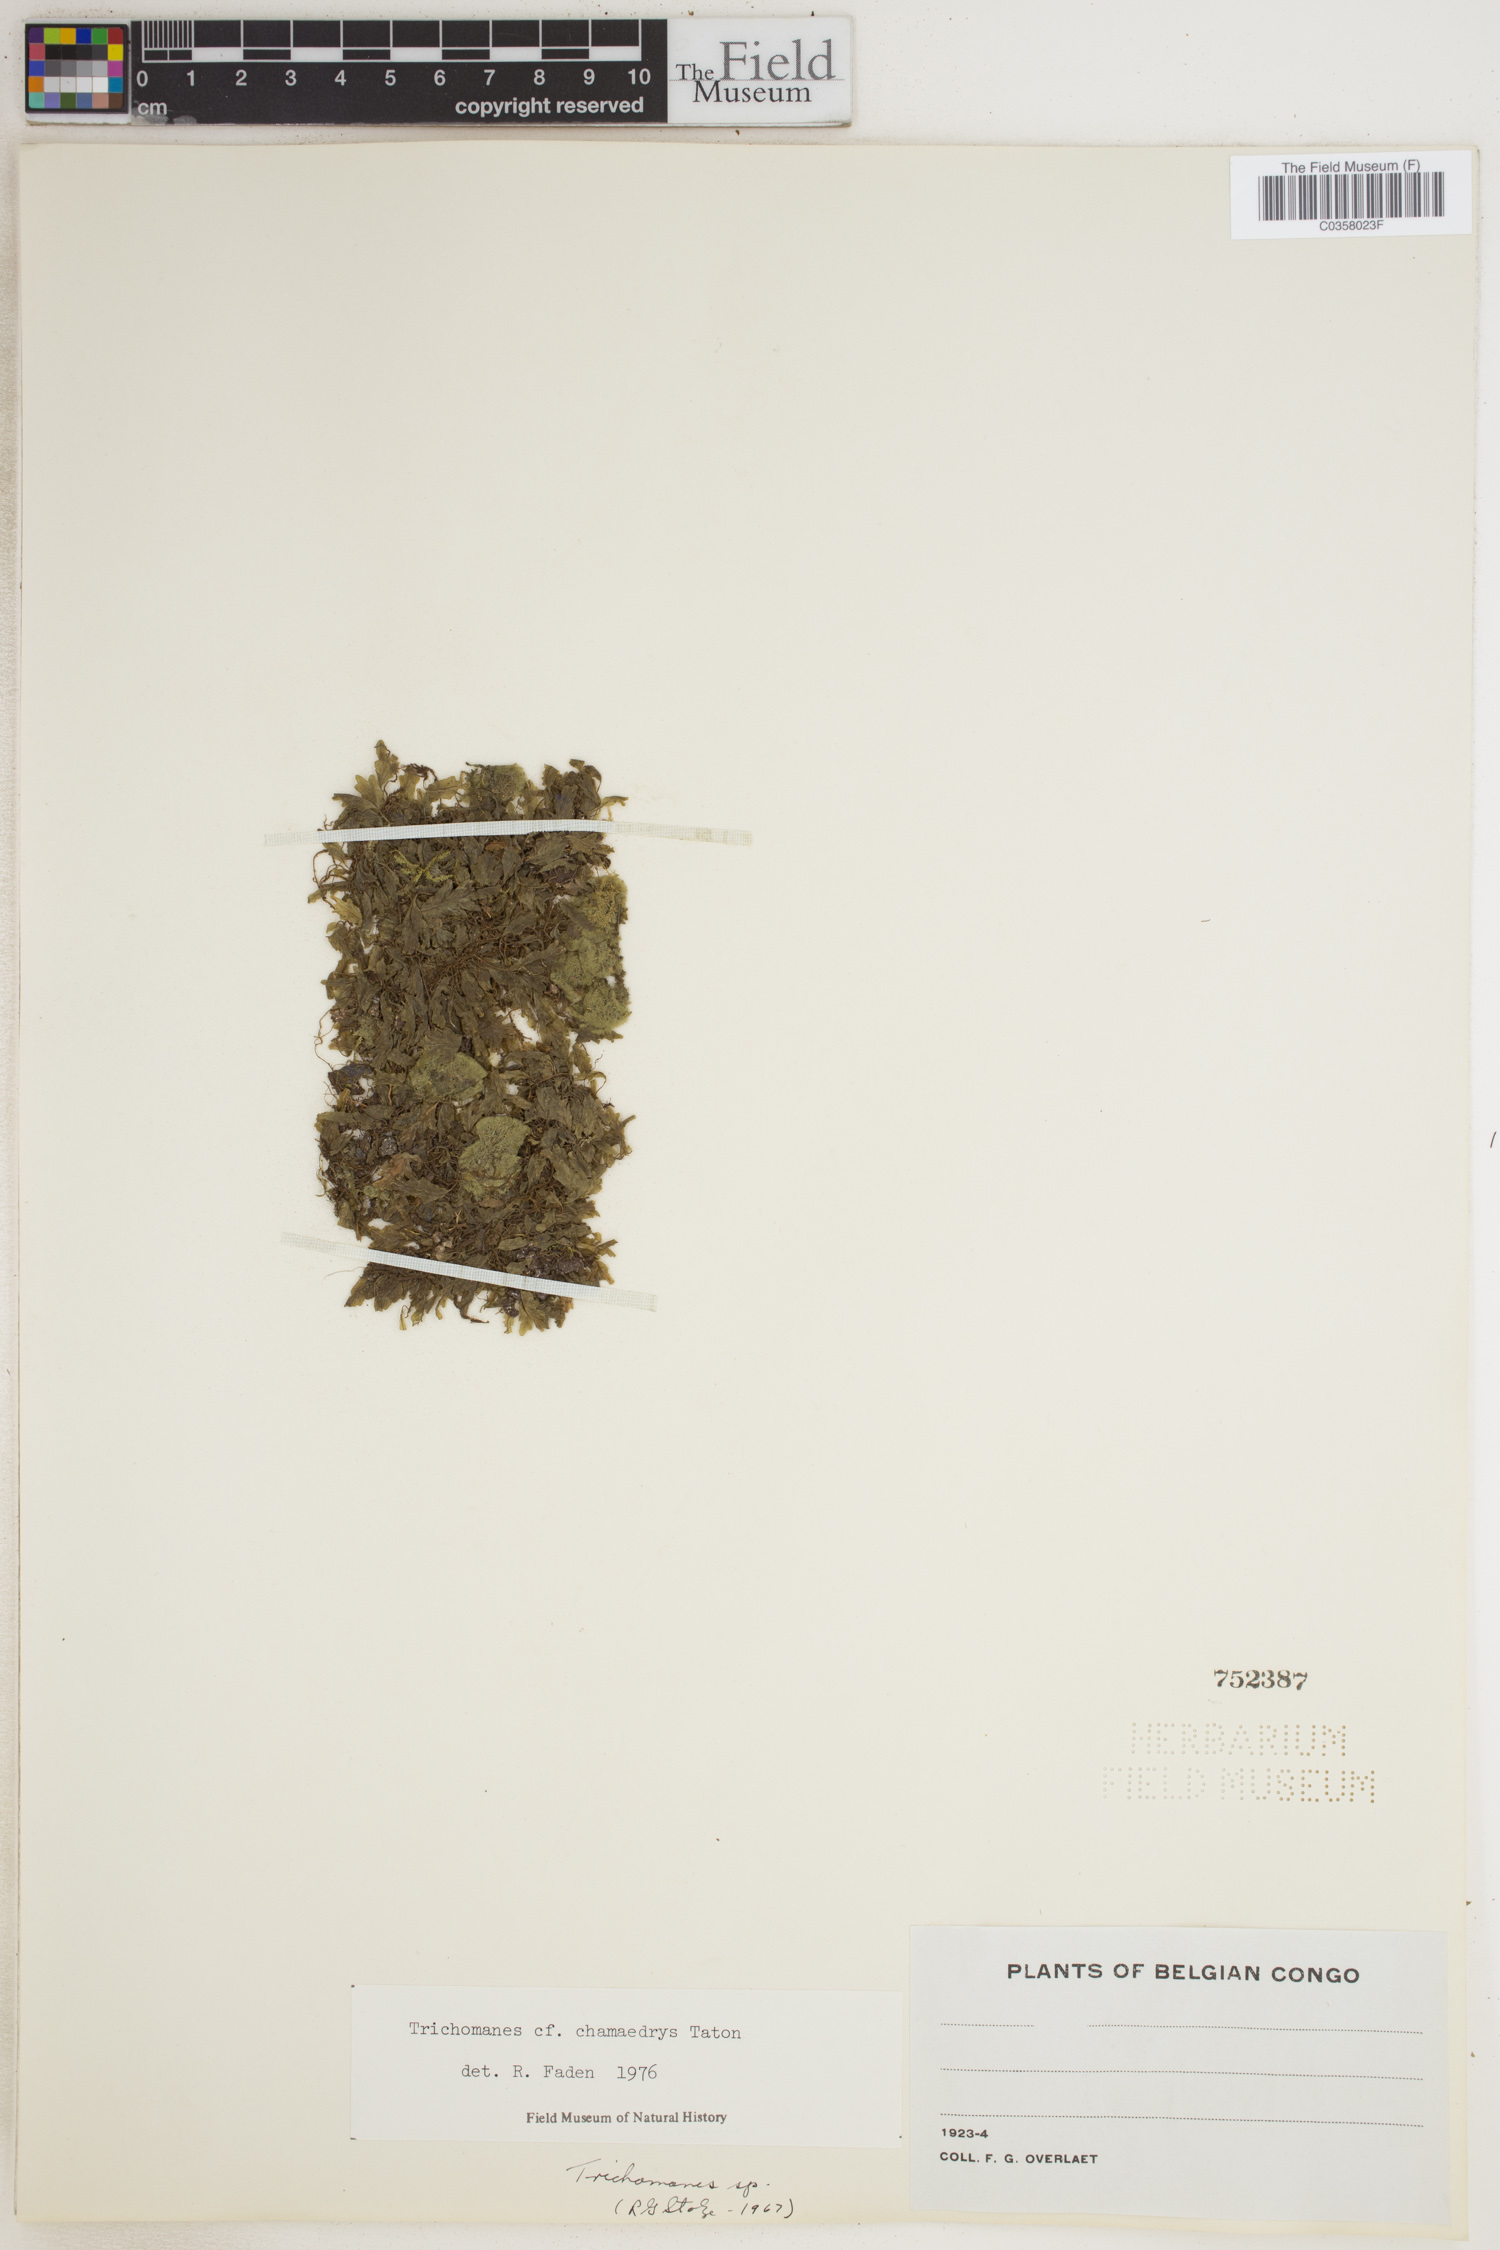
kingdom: Plantae
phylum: Tracheophyta
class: Polypodiopsida
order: Hymenophyllales
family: Hymenophyllaceae
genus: Didymoglossum
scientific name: Didymoglossum chamaedrys
